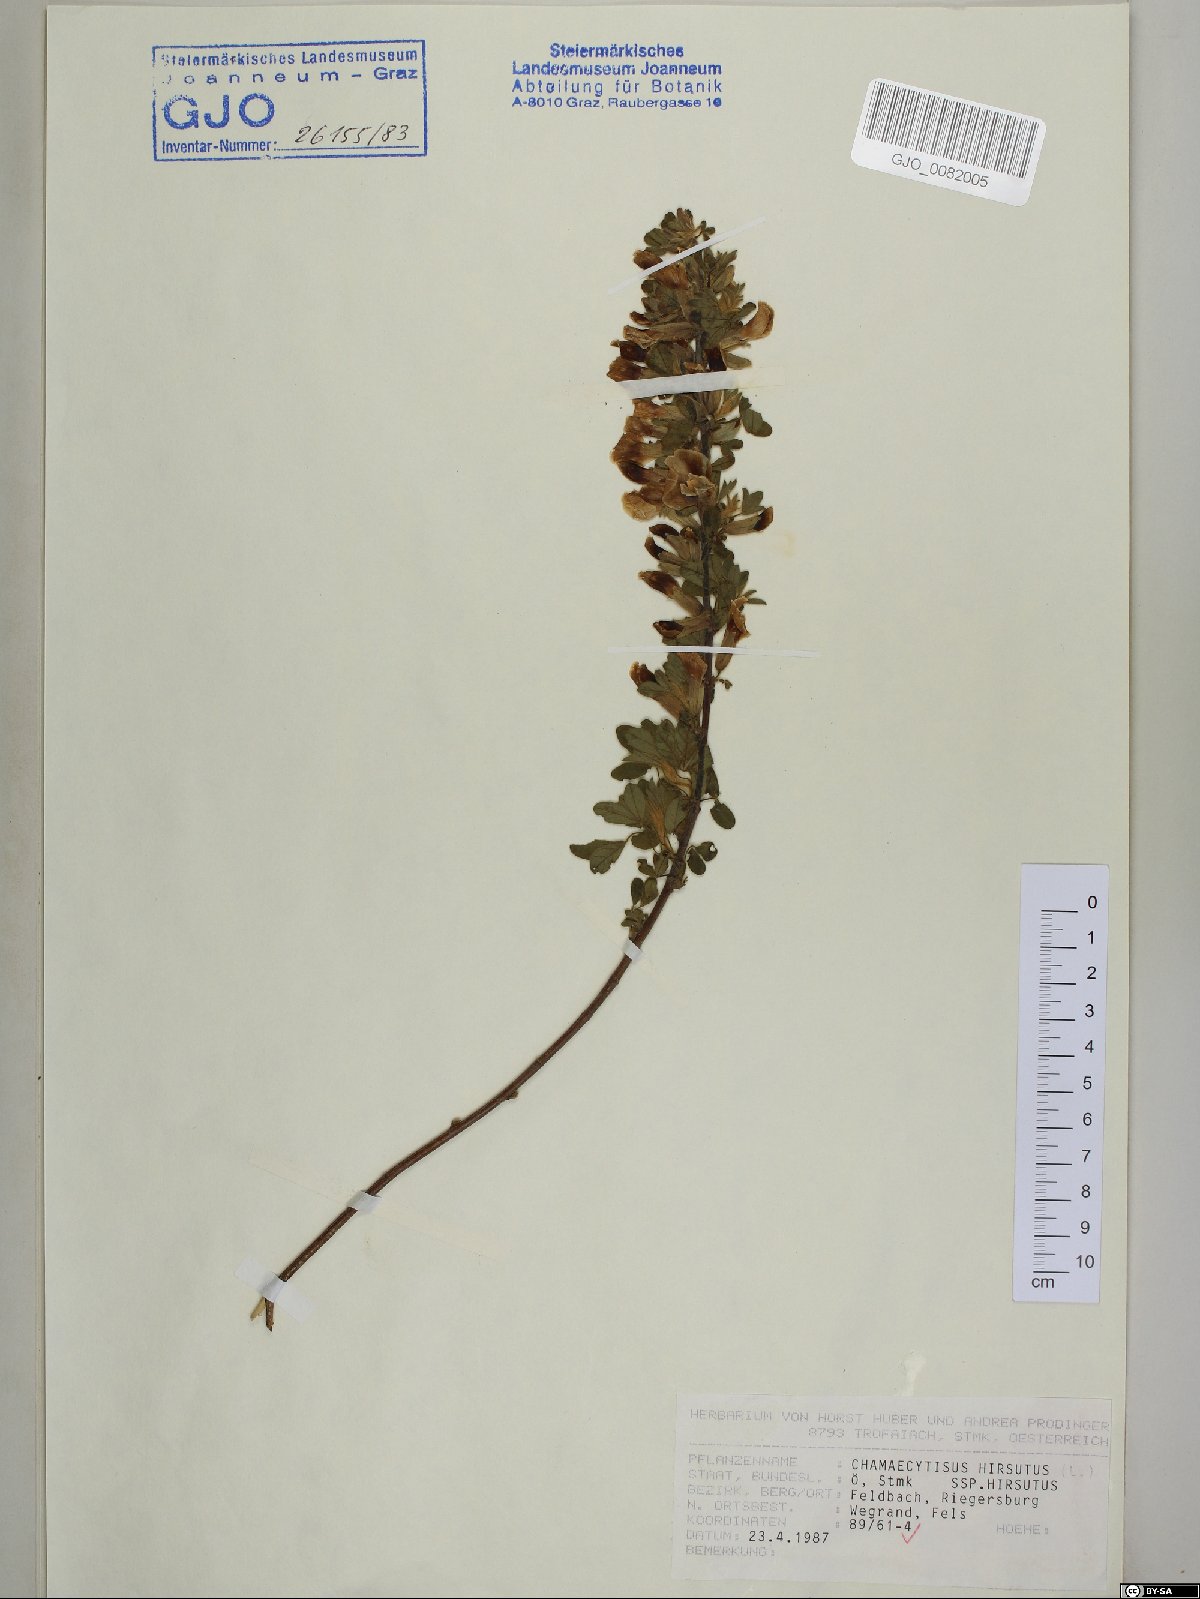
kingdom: Plantae
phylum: Tracheophyta
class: Magnoliopsida
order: Fabales
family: Fabaceae
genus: Chamaecytisus
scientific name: Chamaecytisus hirsutus
